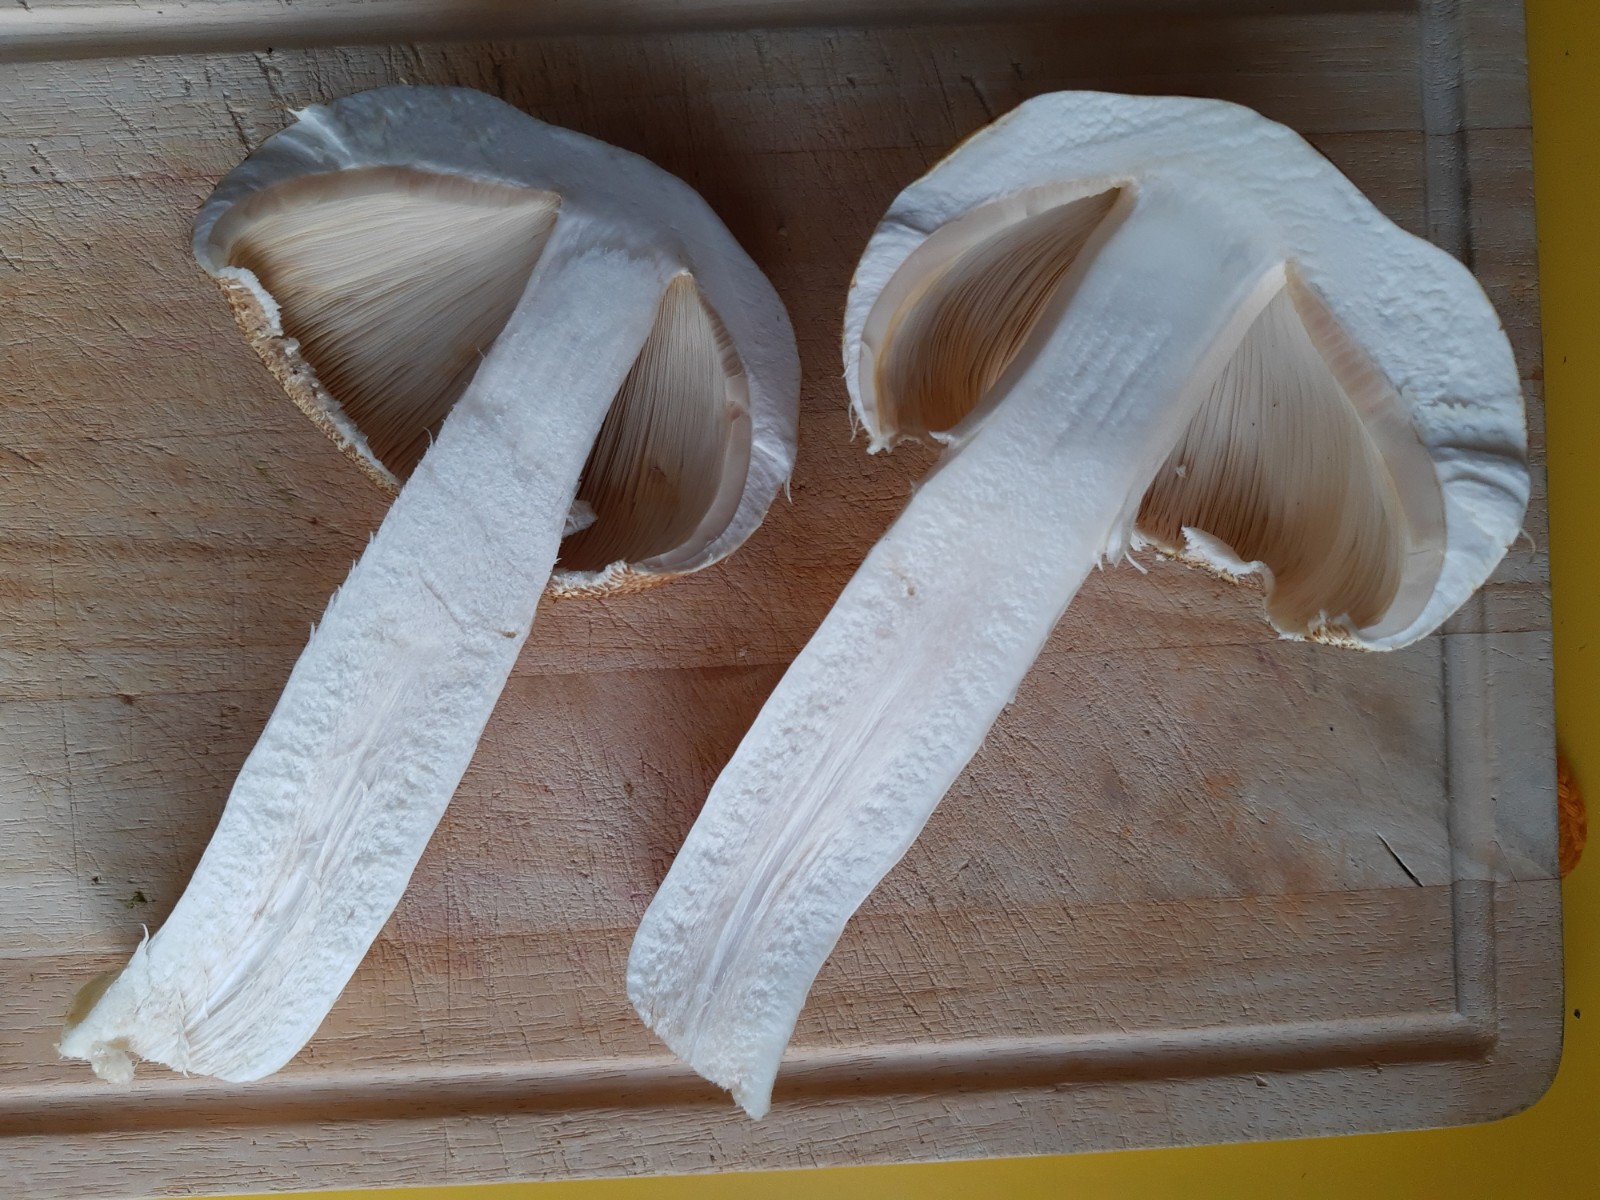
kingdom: Fungi
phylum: Basidiomycota
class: Agaricomycetes
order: Agaricales
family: Agaricaceae
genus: Agaricus
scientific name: Agaricus augustus
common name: prægtig champignon
